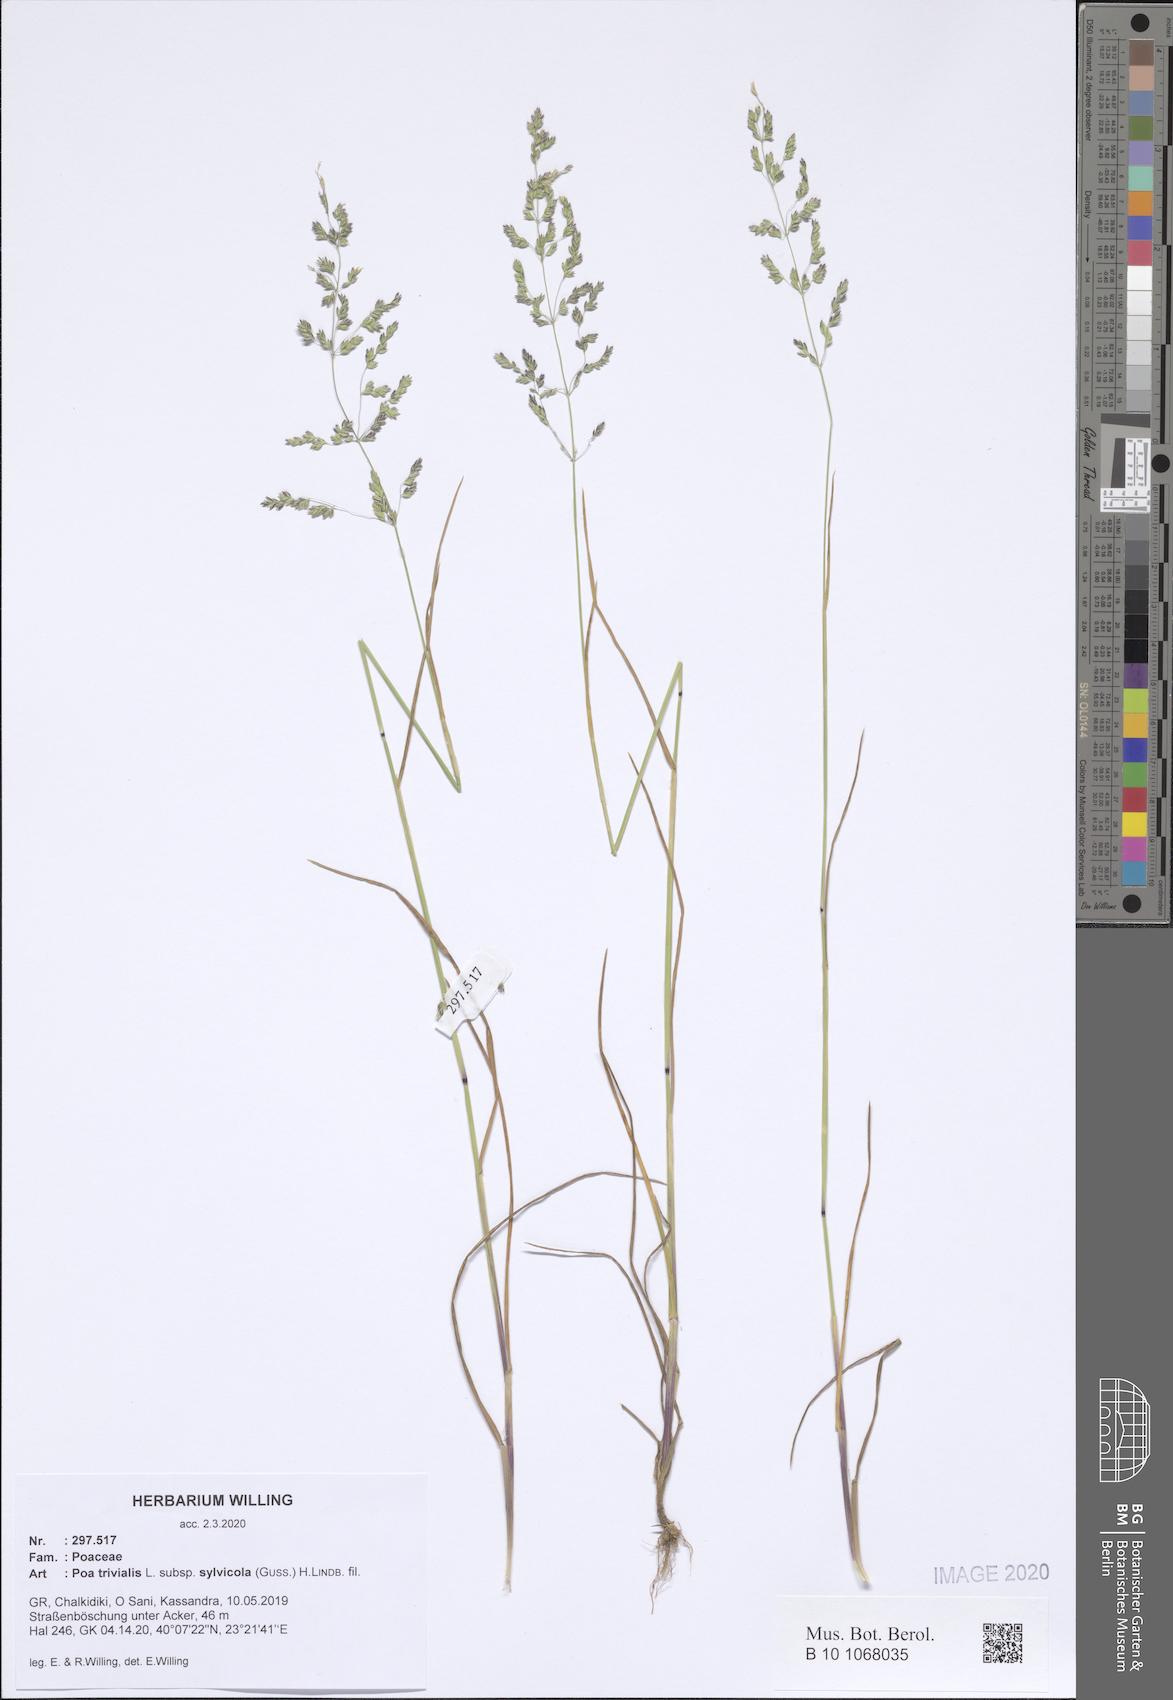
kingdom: Plantae
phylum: Tracheophyta
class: Liliopsida
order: Poales
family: Poaceae
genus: Poa
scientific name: Poa trivialis
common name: Rough bluegrass
